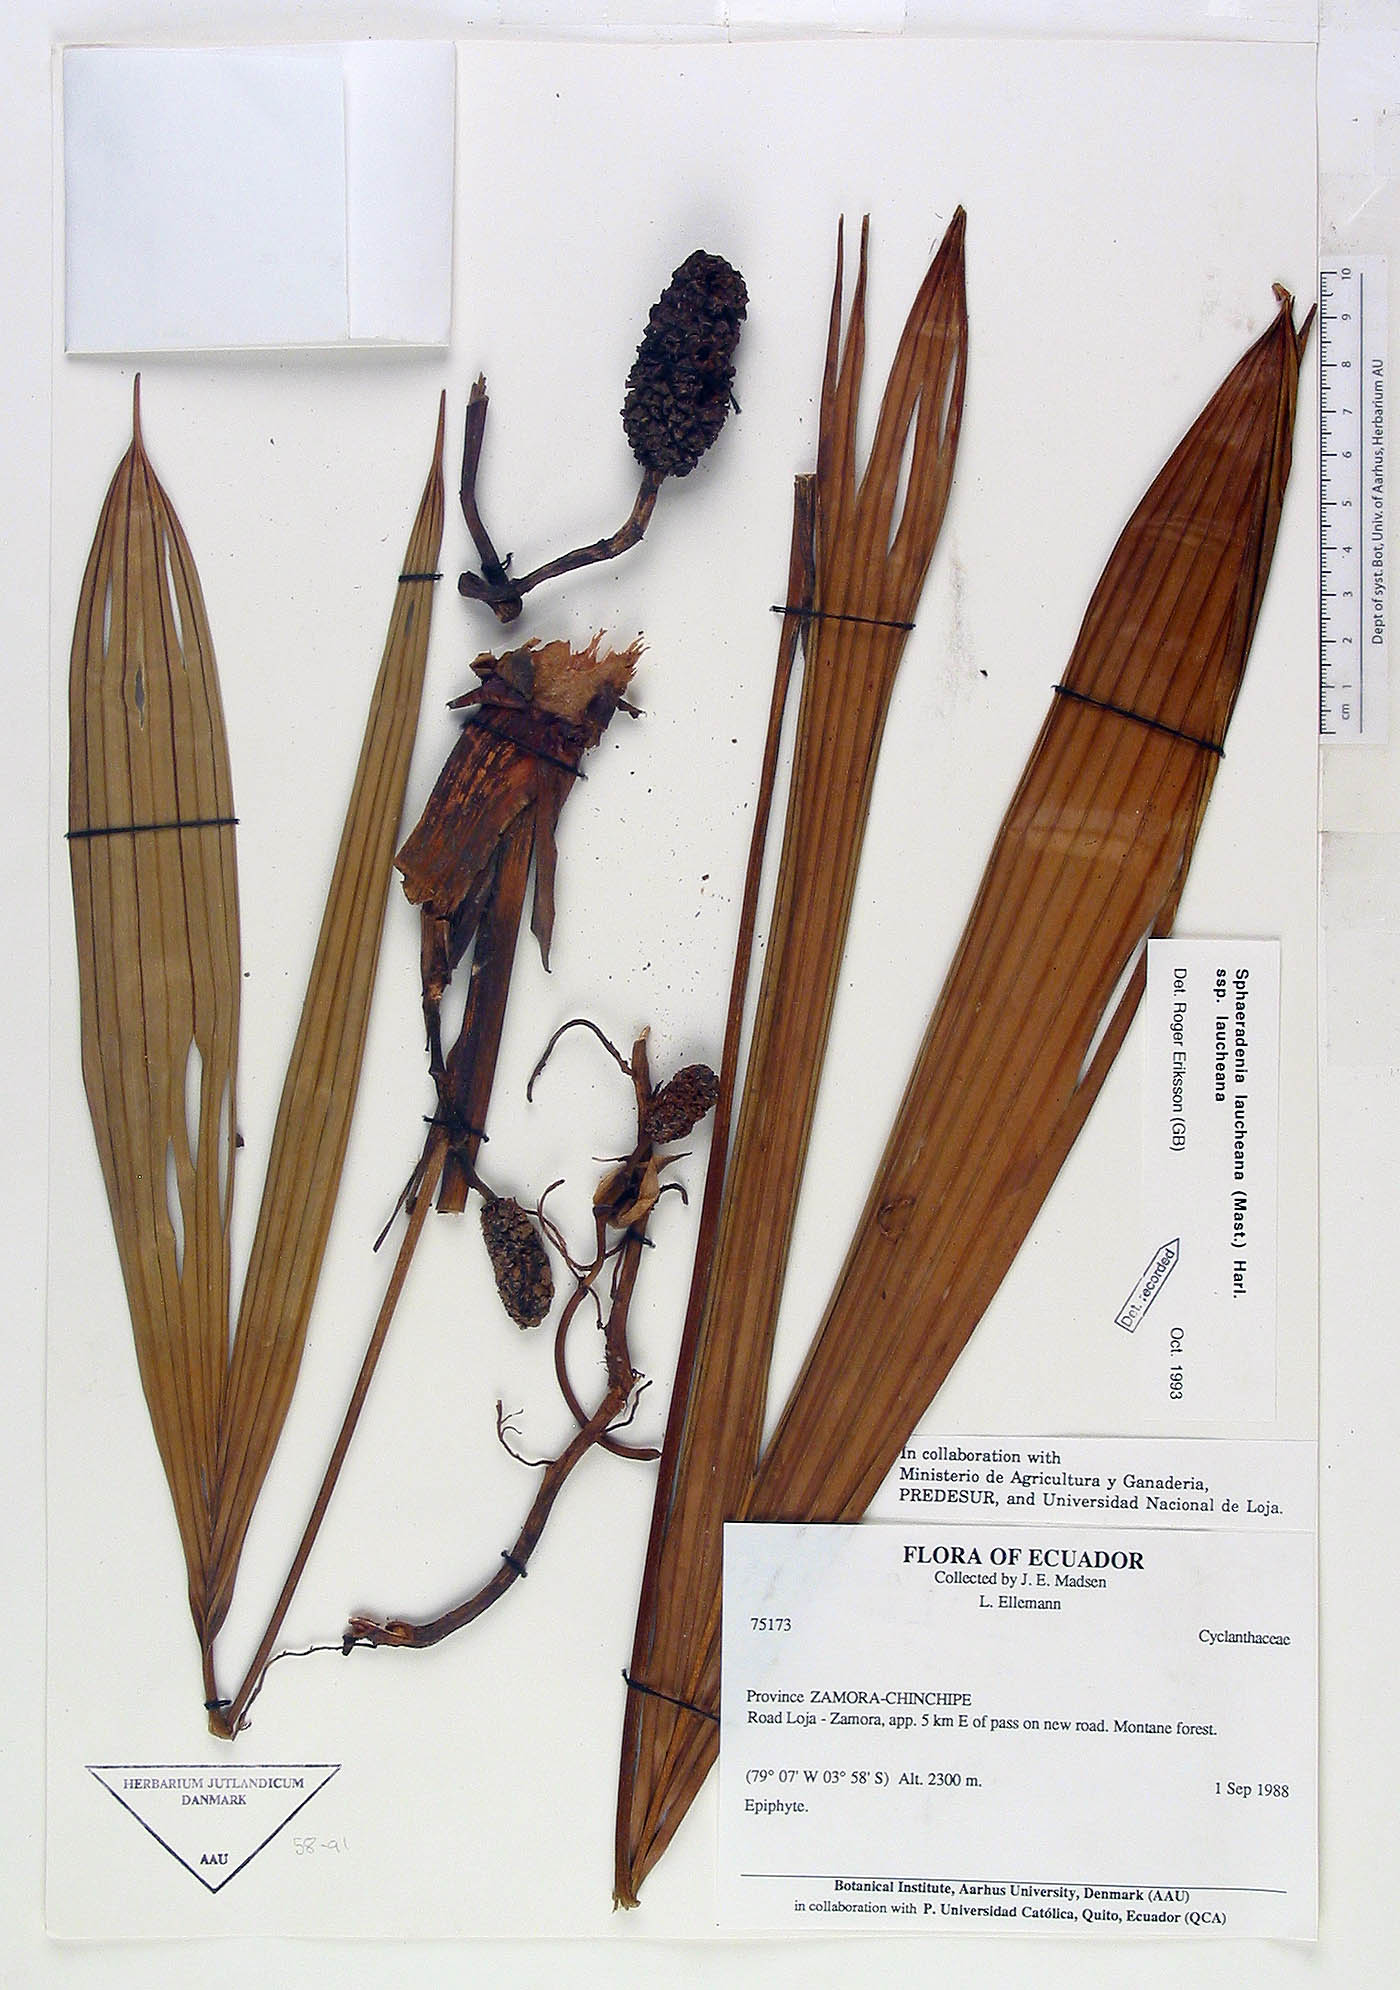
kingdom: Plantae
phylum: Tracheophyta
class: Liliopsida
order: Pandanales
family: Cyclanthaceae
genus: Sphaeradenia
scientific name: Sphaeradenia laucheana
